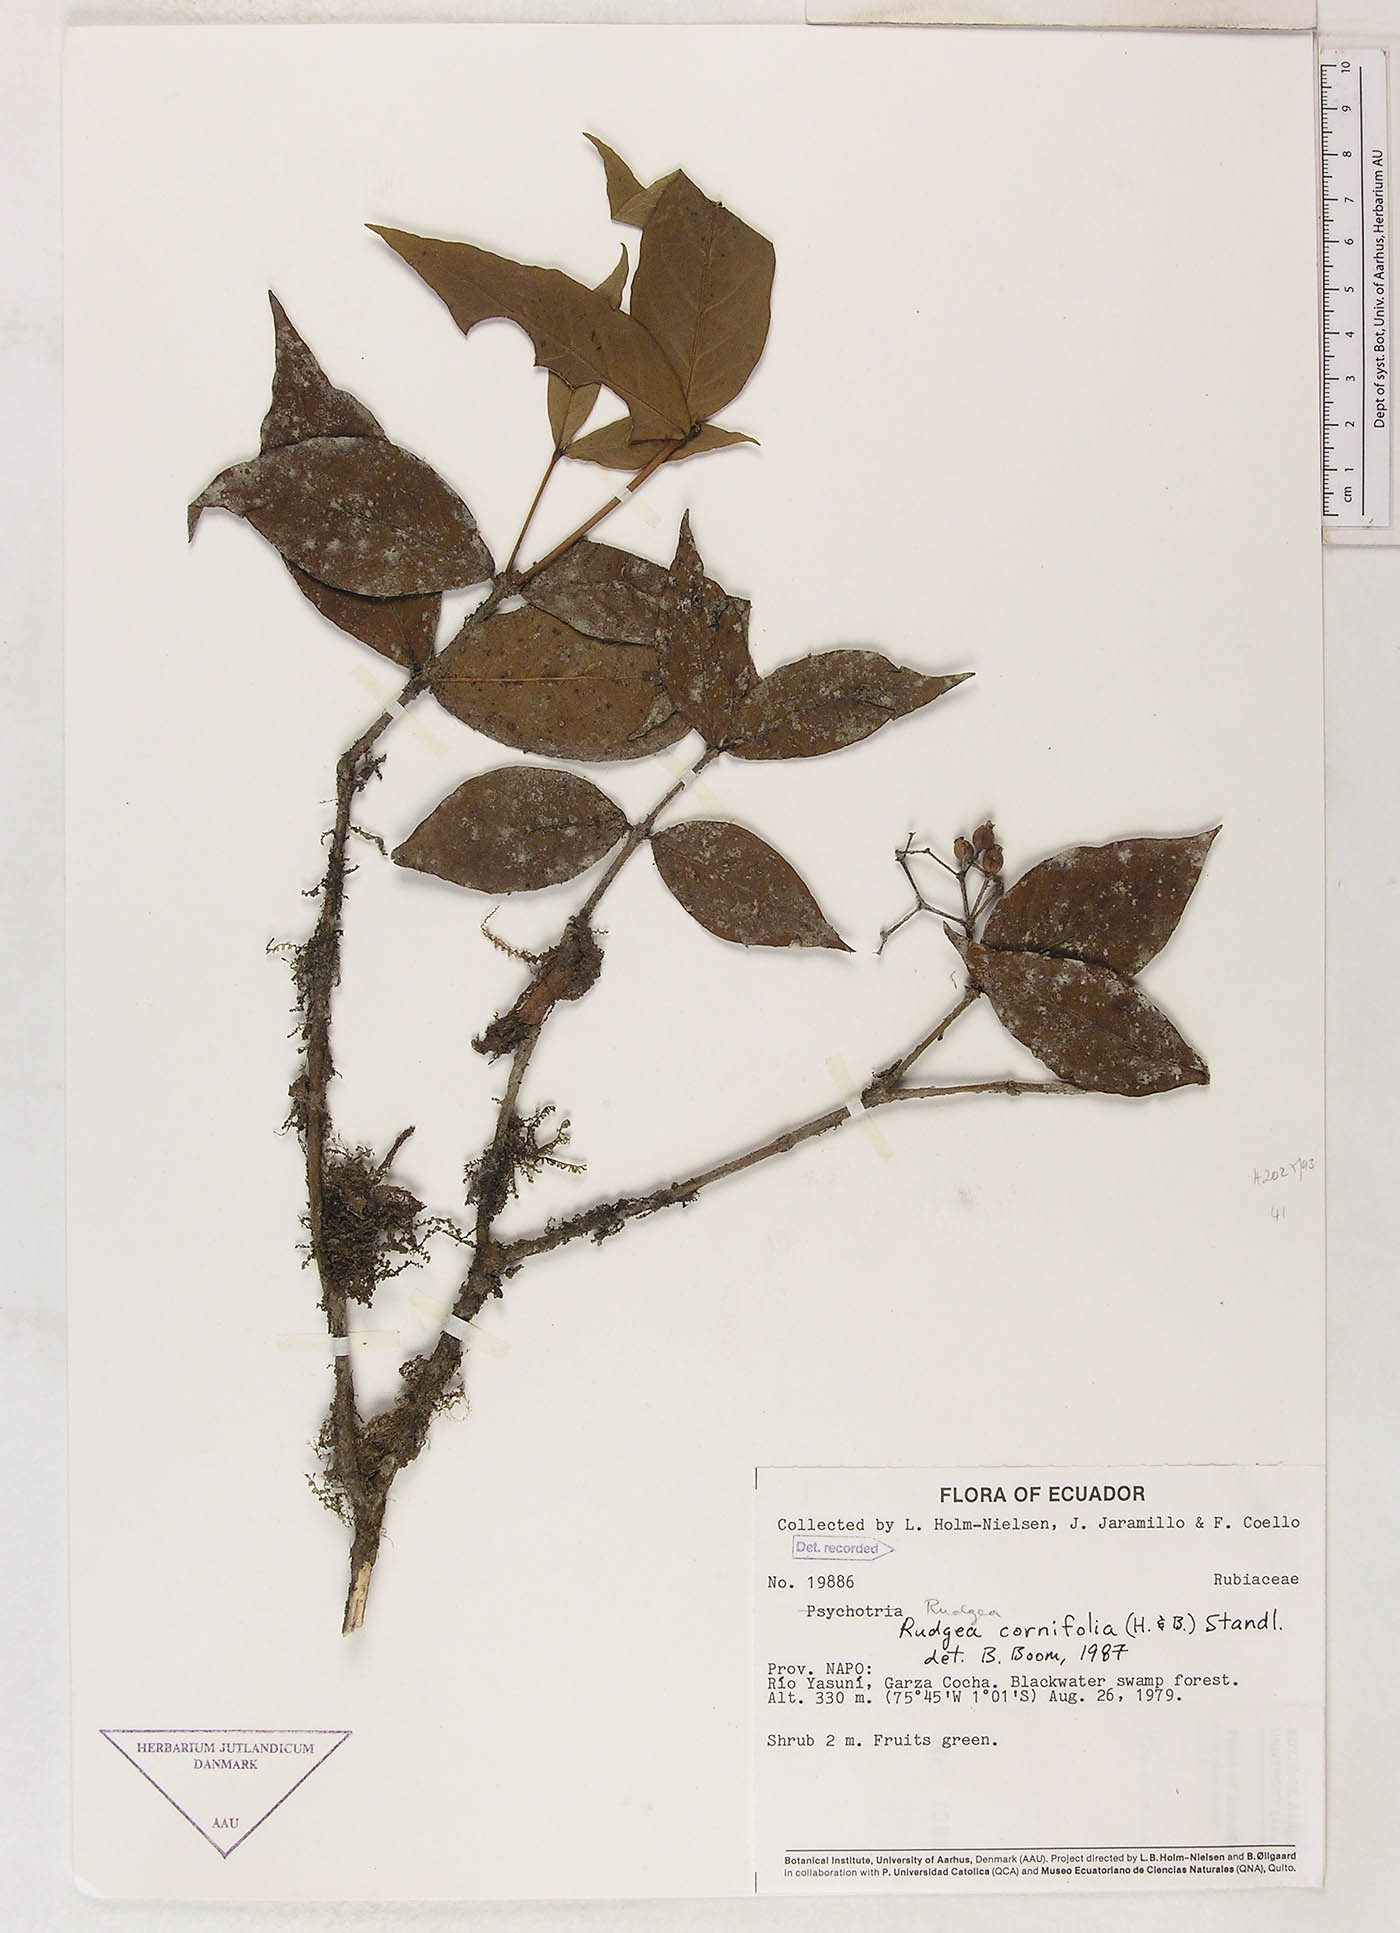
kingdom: Plantae
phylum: Tracheophyta
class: Magnoliopsida
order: Gentianales
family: Rubiaceae
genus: Rudgea
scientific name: Rudgea cornifolia
